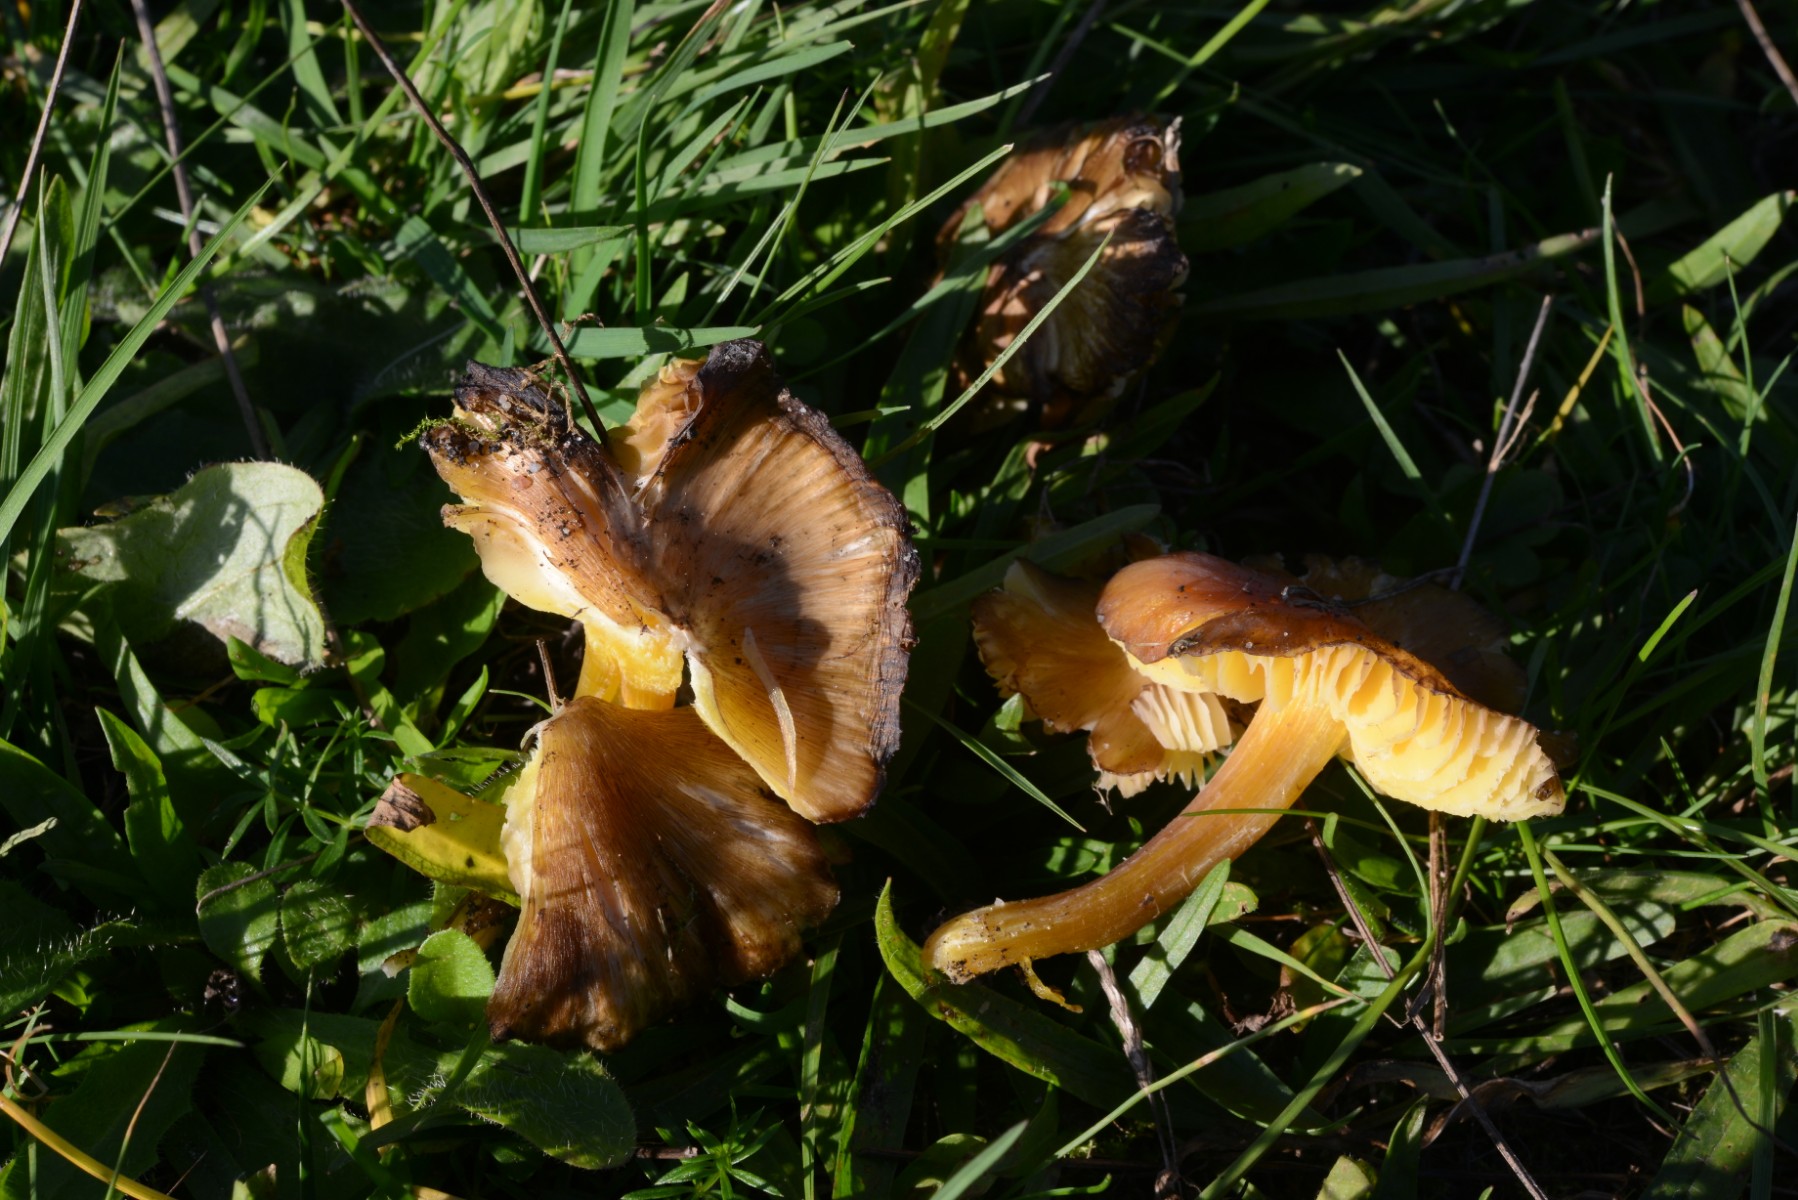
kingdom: Fungi
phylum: Basidiomycota
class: Agaricomycetes
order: Agaricales
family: Hygrophoraceae
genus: Hygrocybe
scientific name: Hygrocybe spadicea
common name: daddelbrun vokshat
